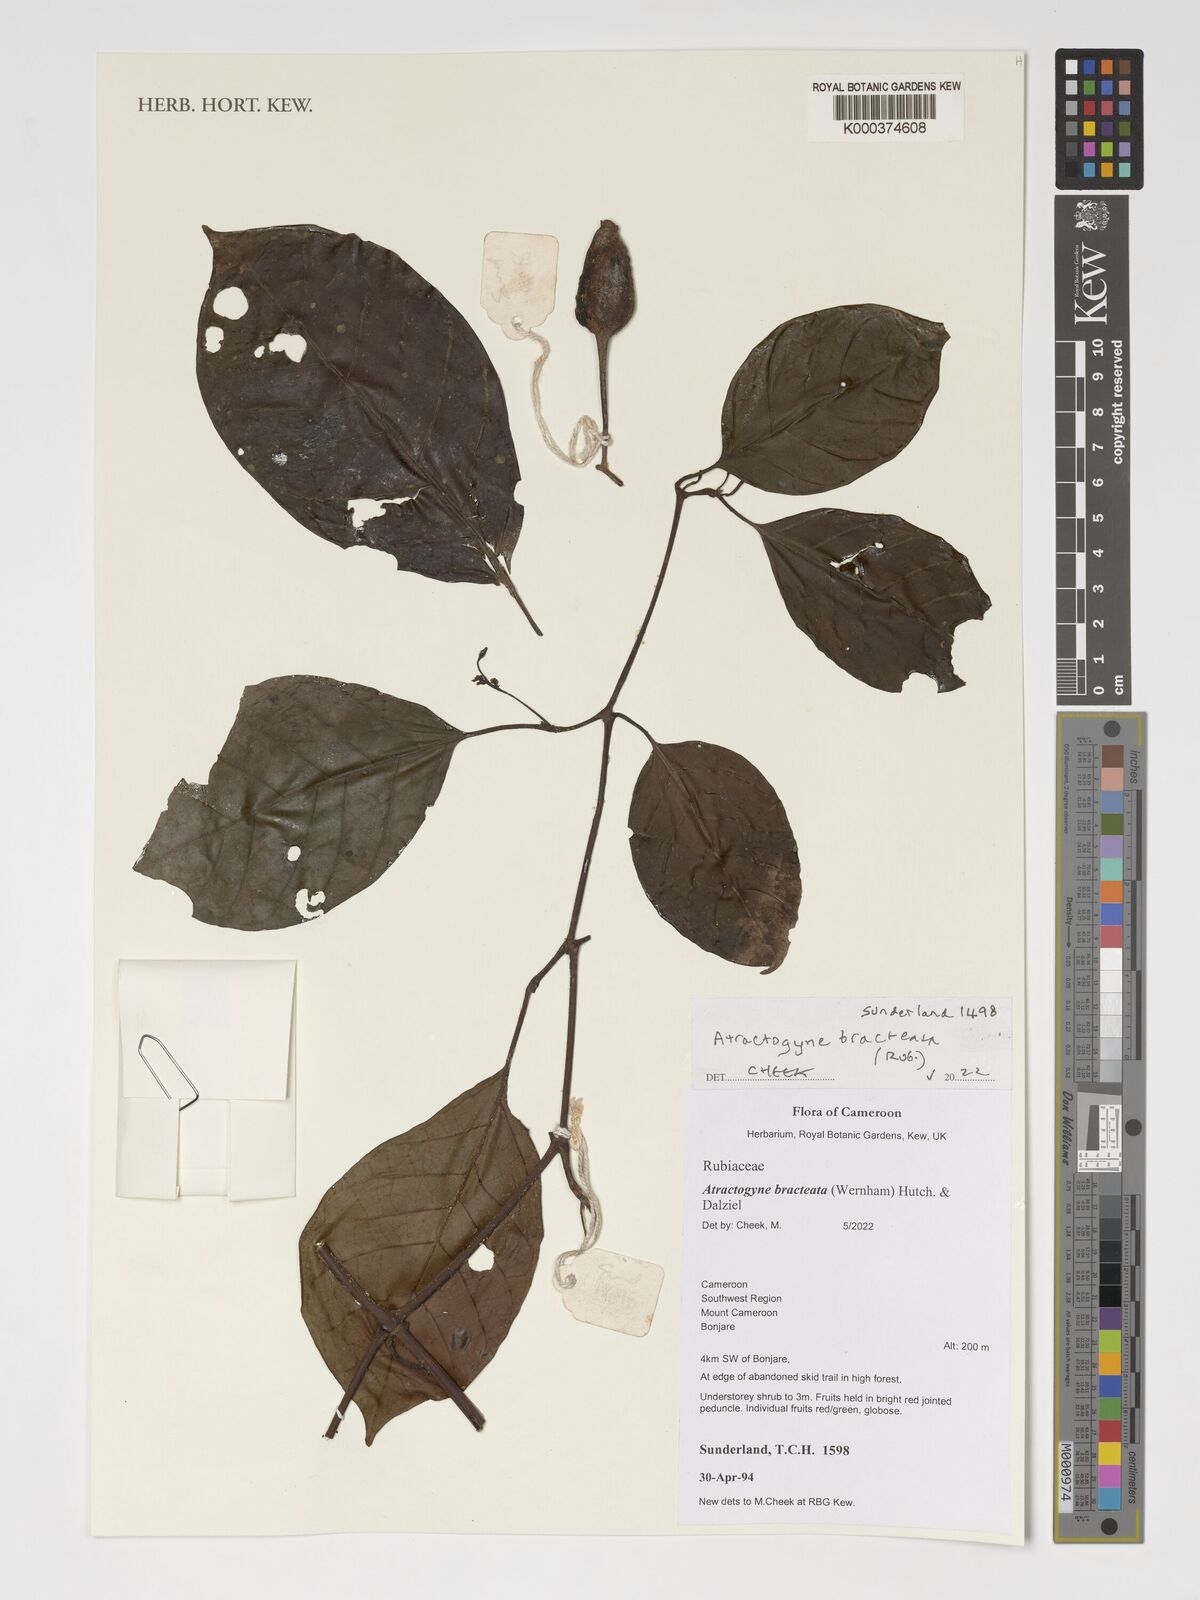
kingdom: Plantae
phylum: Tracheophyta
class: Magnoliopsida
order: Gentianales
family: Rubiaceae
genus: Atractogyne
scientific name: Atractogyne bracteata
